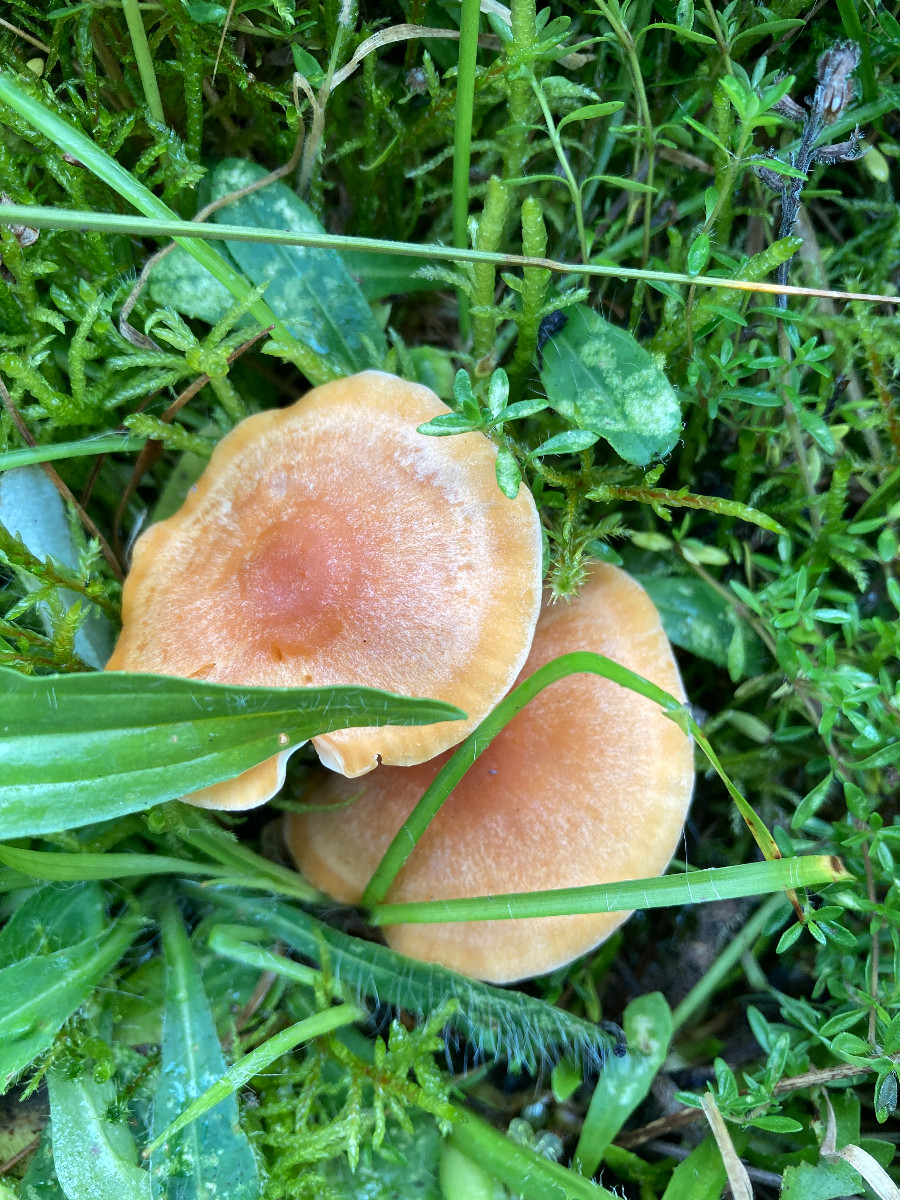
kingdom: Fungi
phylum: Basidiomycota
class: Agaricomycetes
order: Agaricales
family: Hygrophoraceae
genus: Cuphophyllus
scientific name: Cuphophyllus pratensis
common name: eng-vokshat
